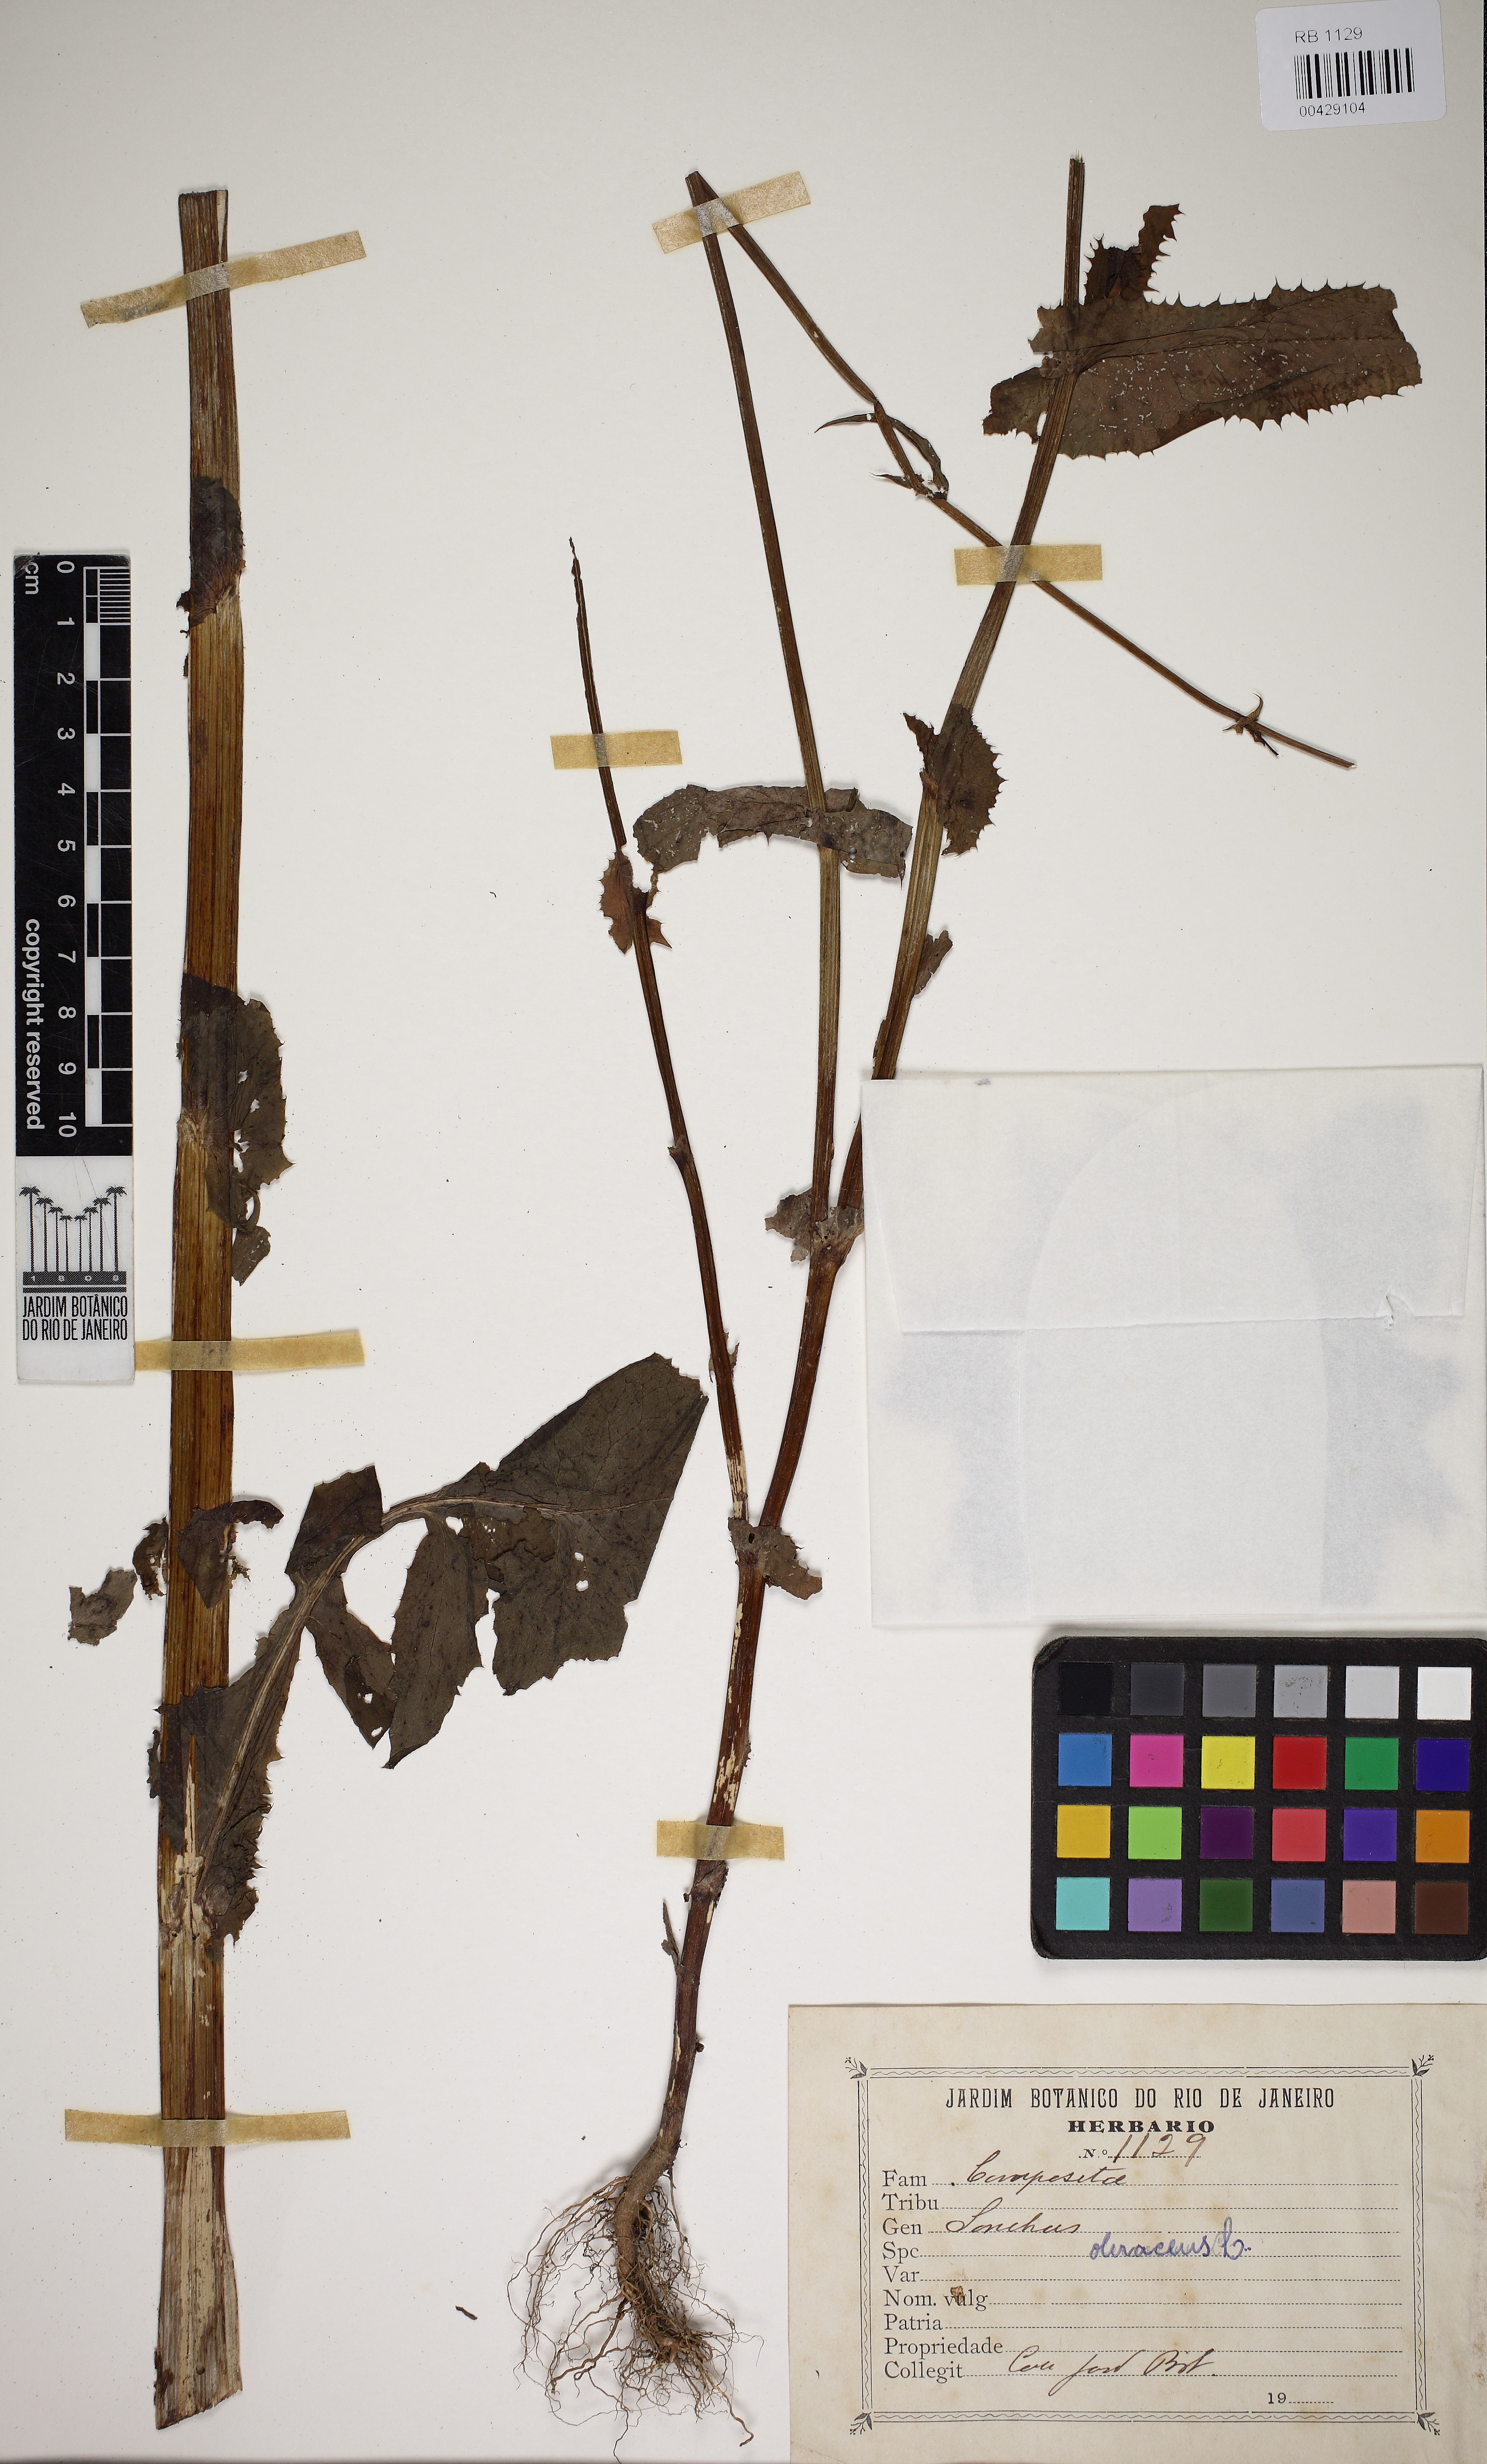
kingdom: Plantae
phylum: Tracheophyta
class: Magnoliopsida
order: Asterales
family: Asteraceae
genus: Sonchus
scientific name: Sonchus oleraceus
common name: Common sowthistle
